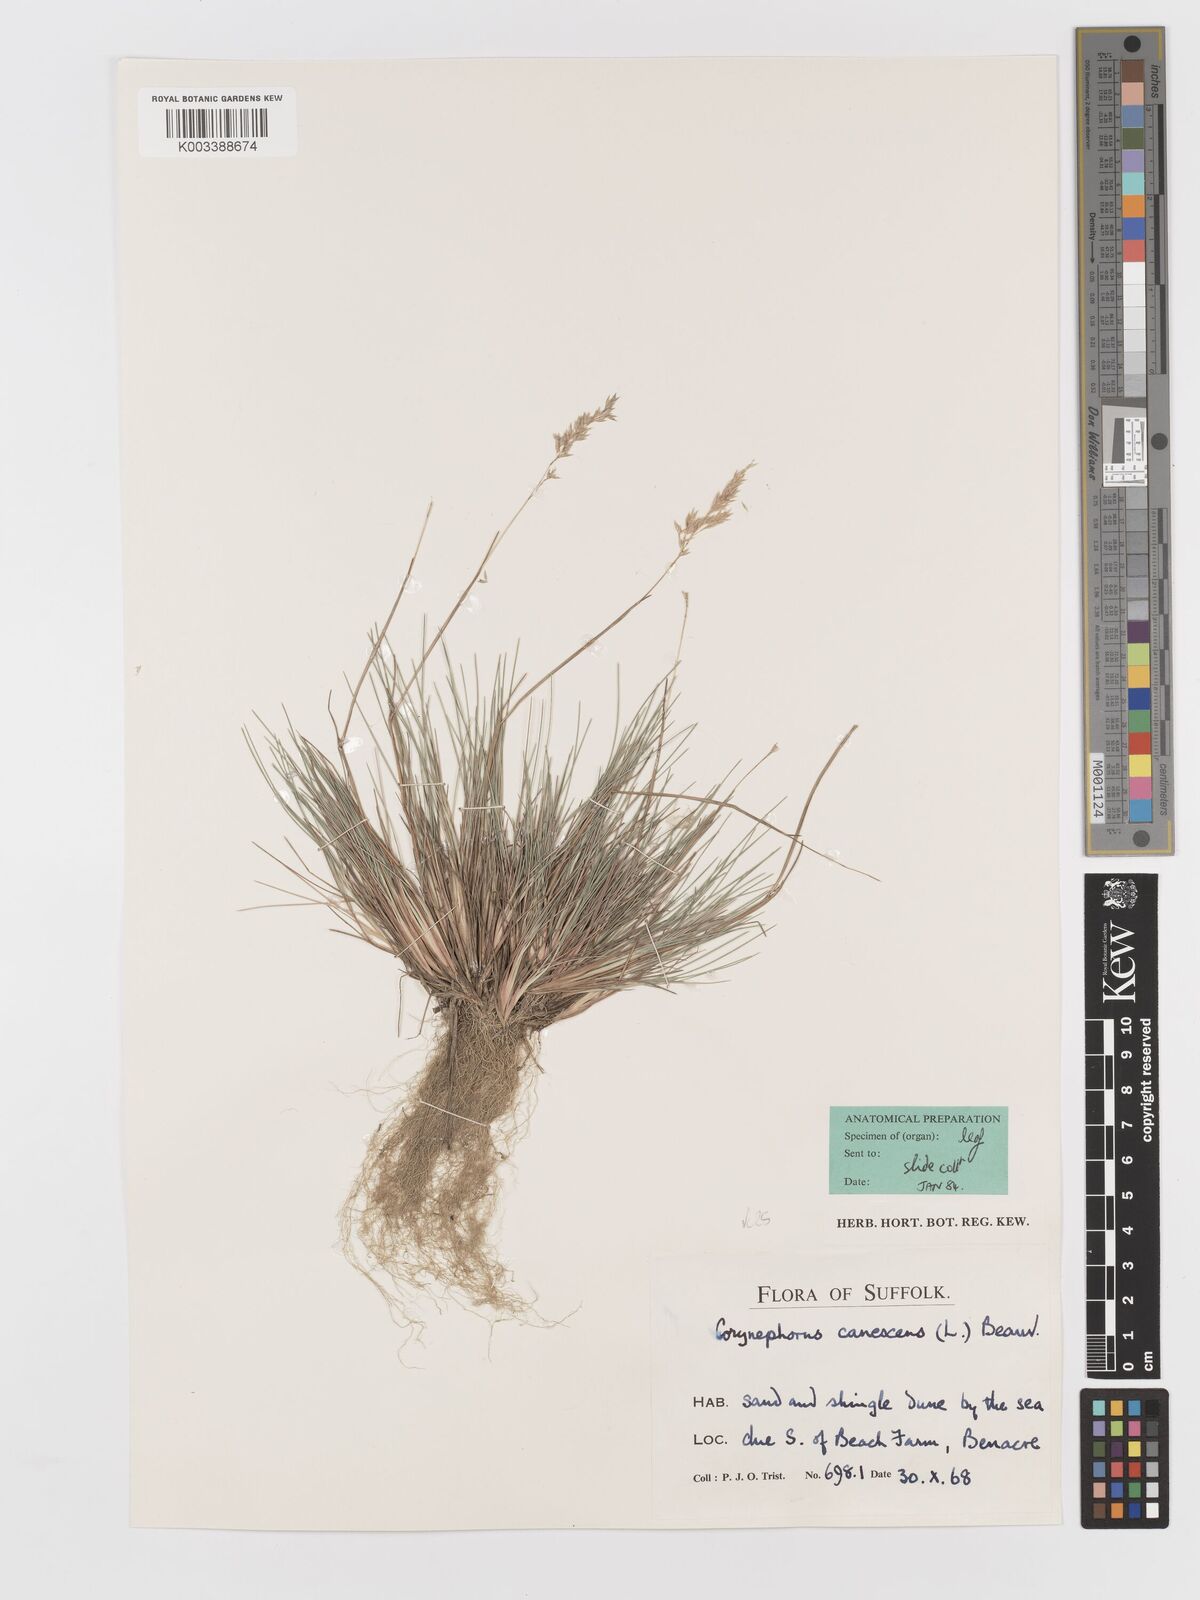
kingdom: Plantae
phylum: Tracheophyta
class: Liliopsida
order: Poales
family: Poaceae
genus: Corynephorus
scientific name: Corynephorus canescens
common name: Grey hair-grass
